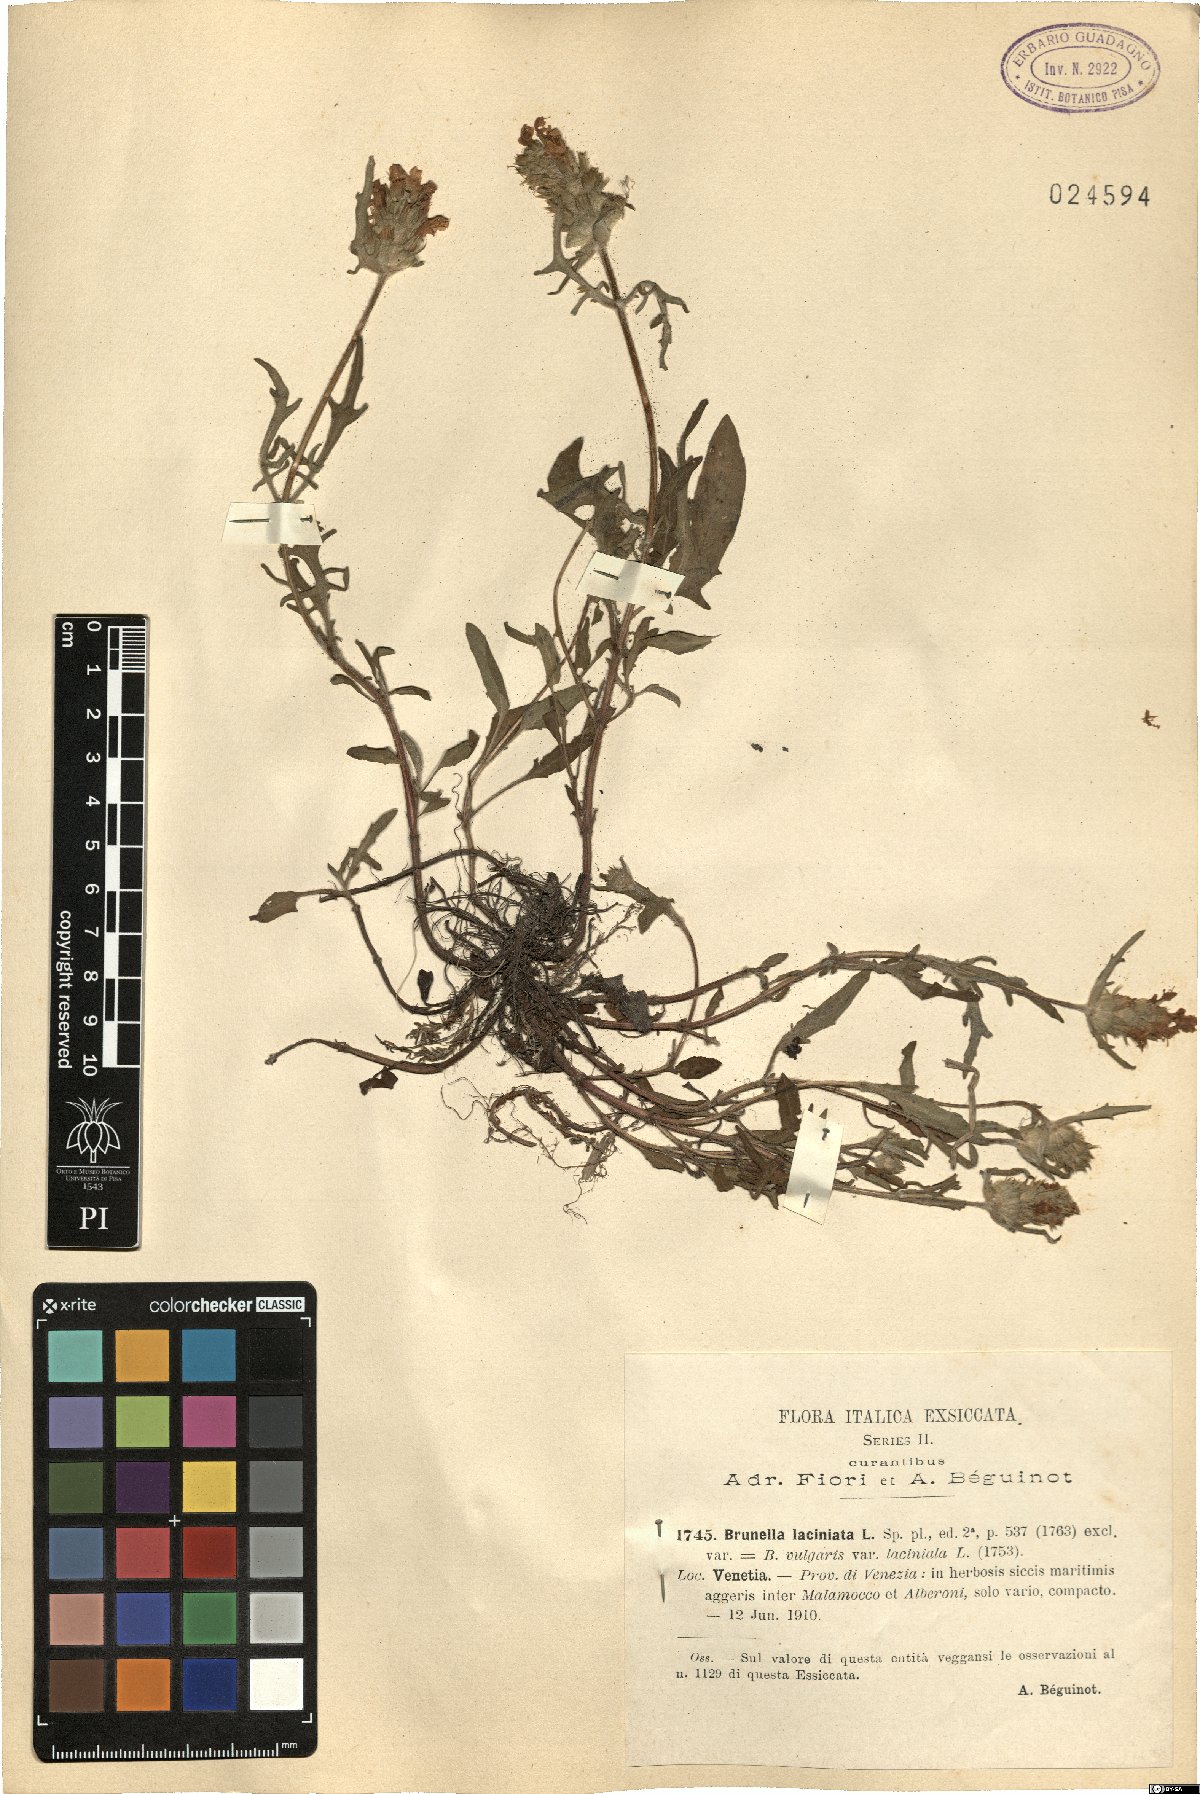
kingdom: Plantae
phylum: Tracheophyta
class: Magnoliopsida
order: Lamiales
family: Lamiaceae
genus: Prunella
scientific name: Prunella laciniata
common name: Cut-leaved selfheal
